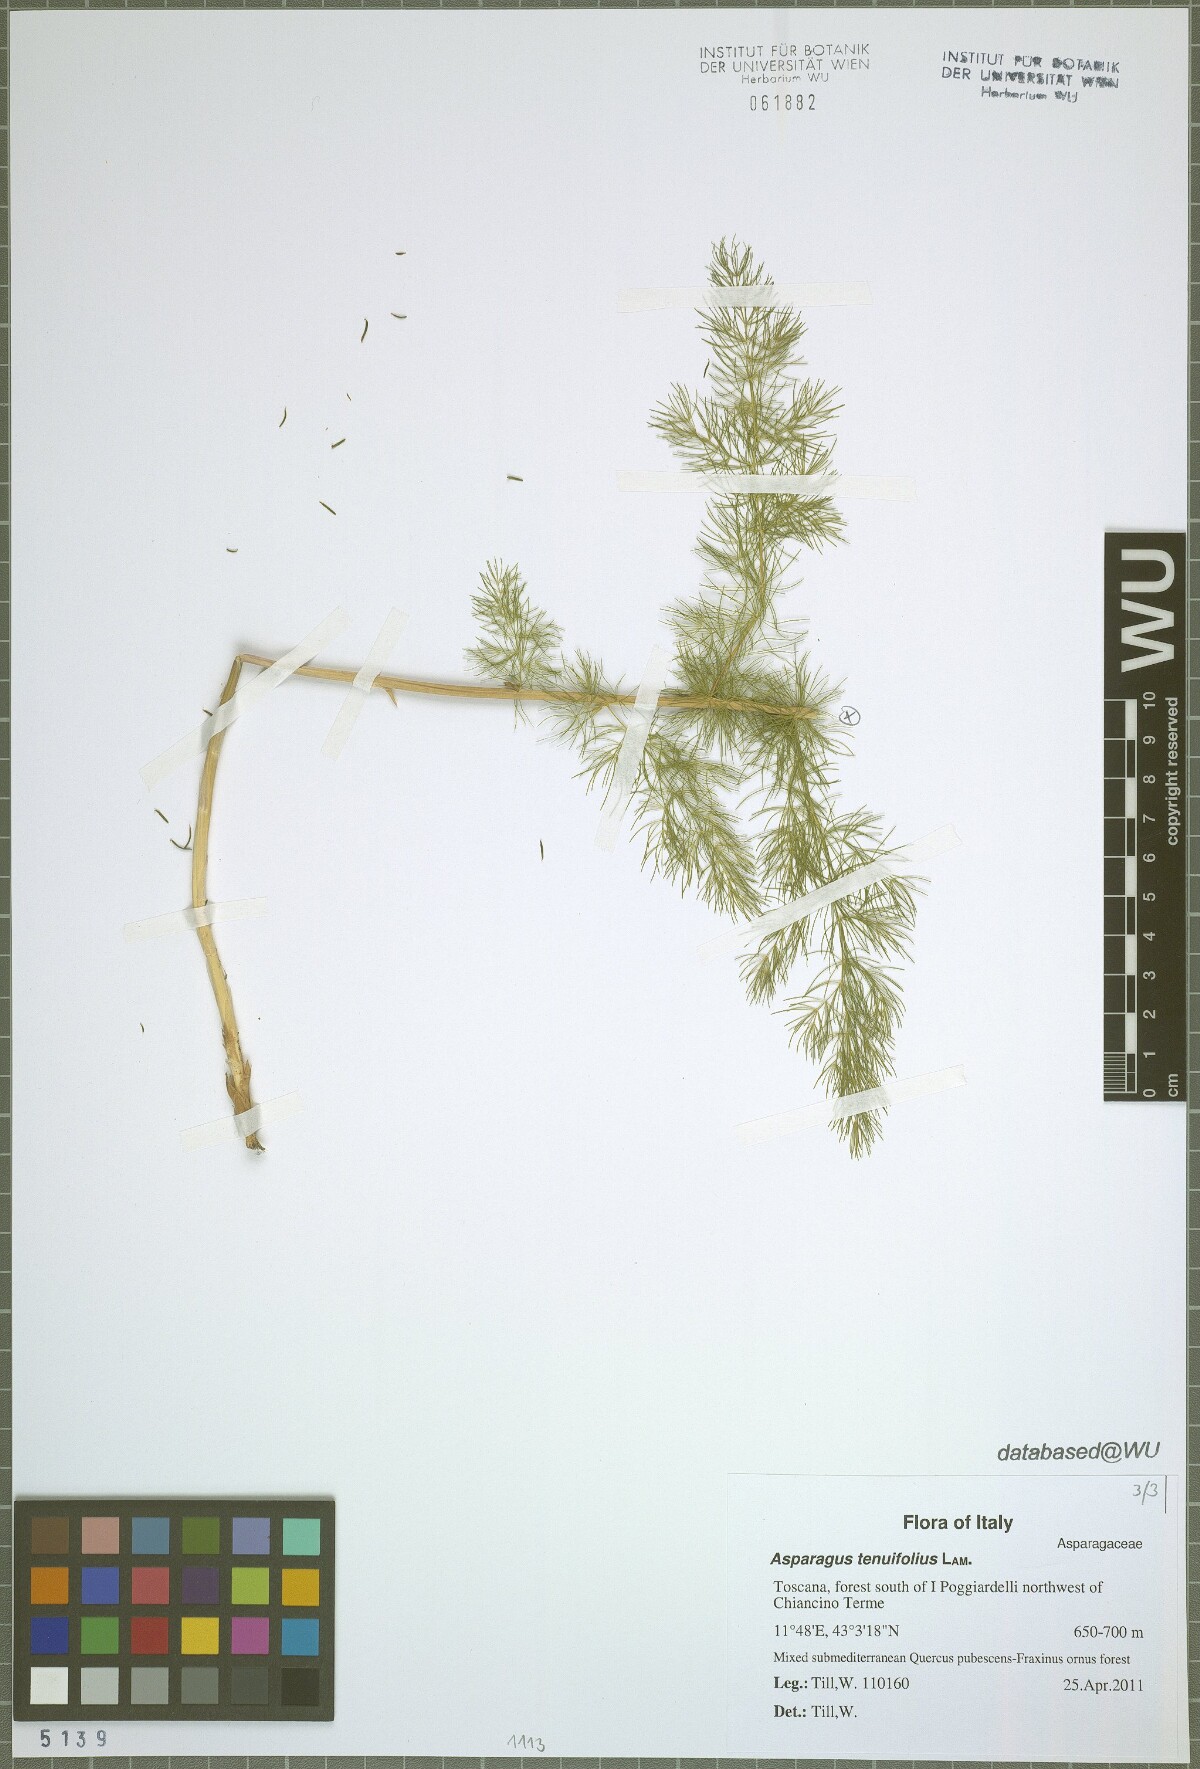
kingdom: Plantae
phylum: Tracheophyta
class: Liliopsida
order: Asparagales
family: Asparagaceae
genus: Asparagus
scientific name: Asparagus tenuifolius
